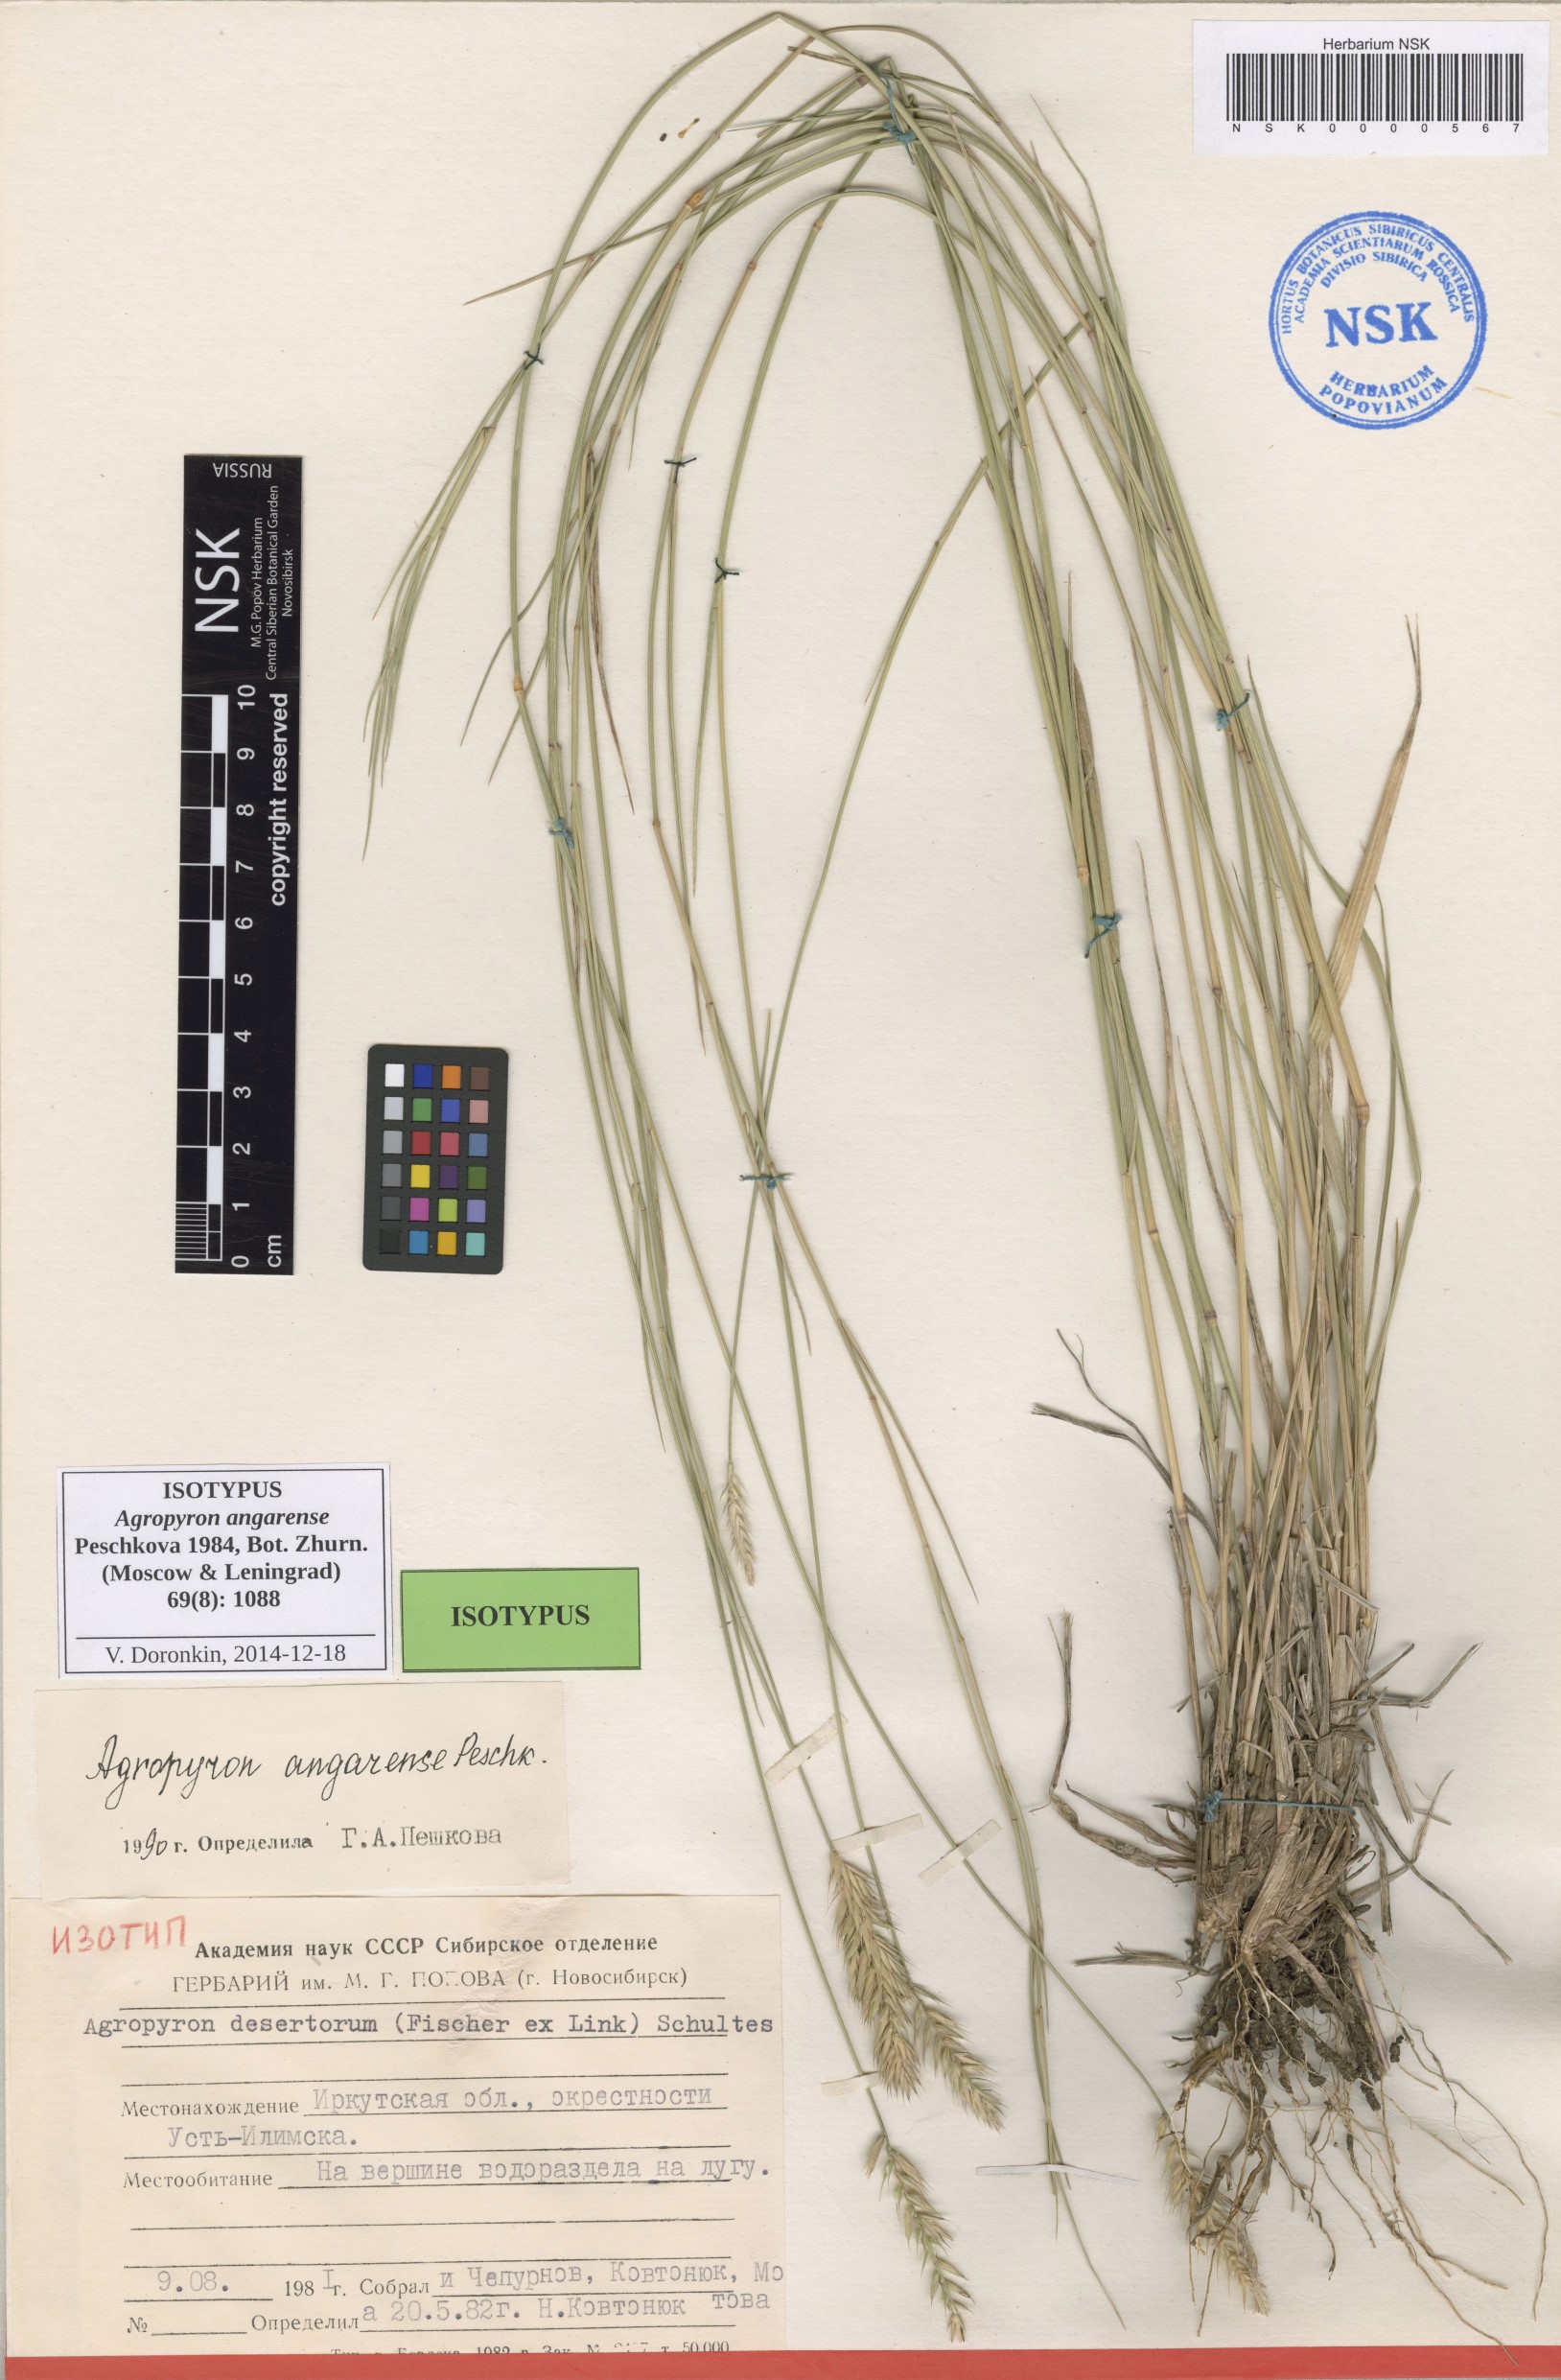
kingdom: Plantae
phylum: Tracheophyta
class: Liliopsida
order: Poales
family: Poaceae
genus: Agropyron
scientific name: Agropyron desertorum
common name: Desert wheatgrass
